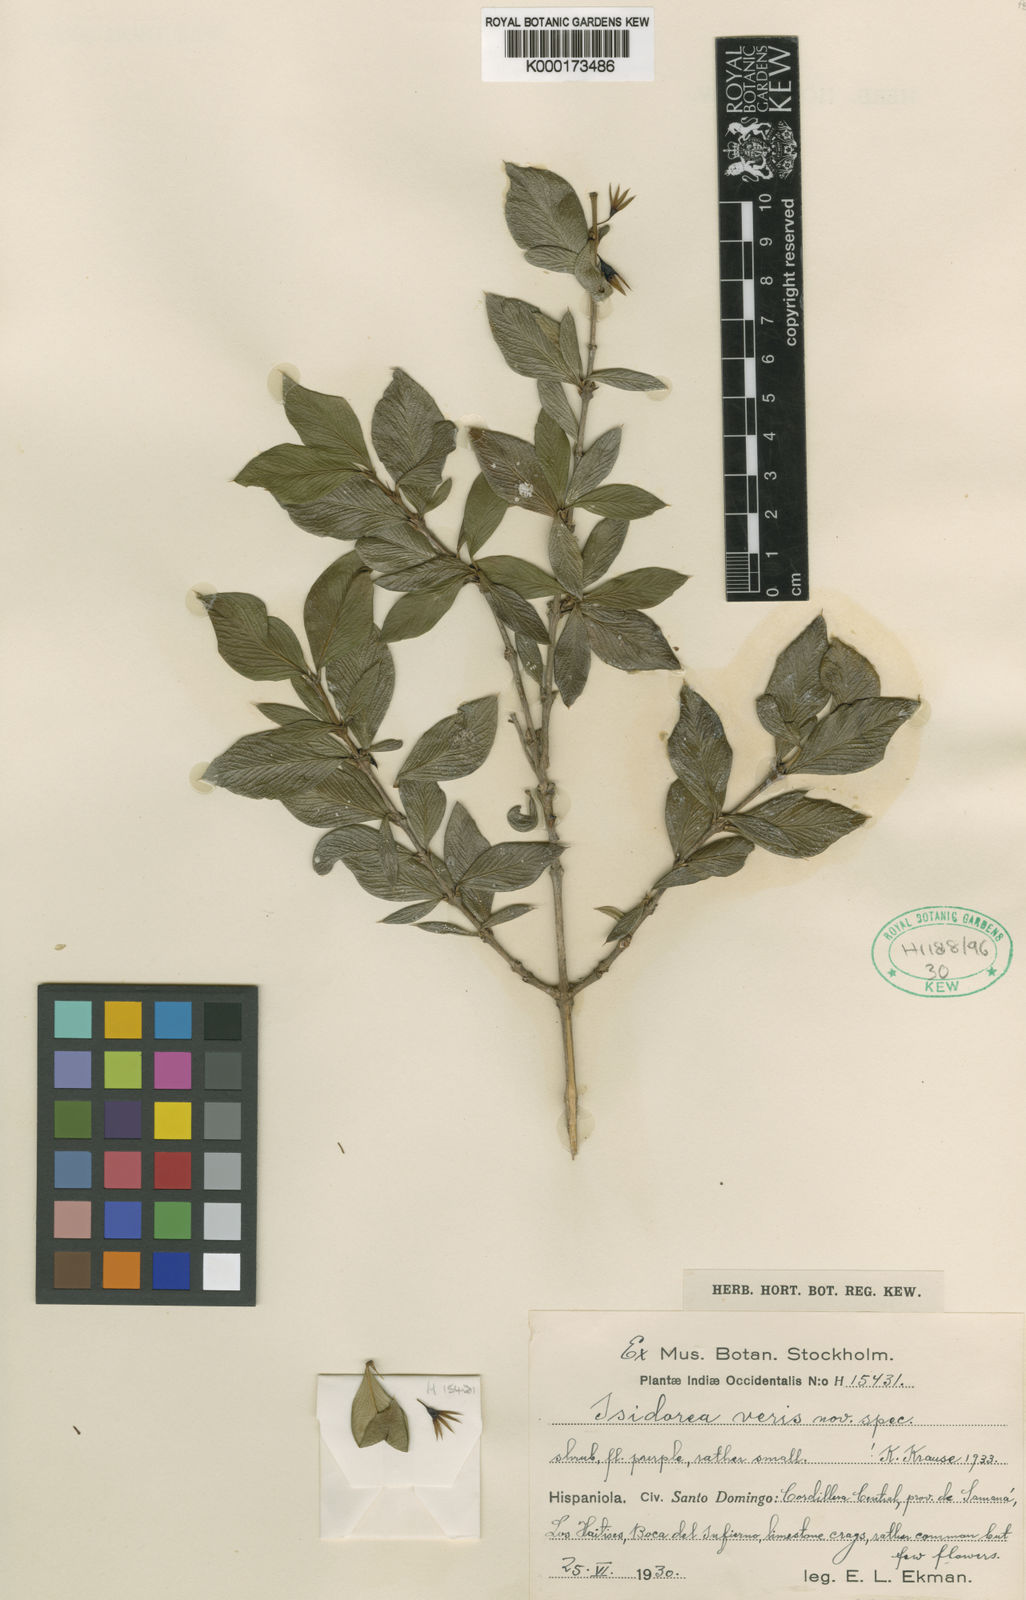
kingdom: Plantae
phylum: Tracheophyta
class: Magnoliopsida
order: Gentianales
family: Rubiaceae
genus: Isidorea
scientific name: Isidorea veris
